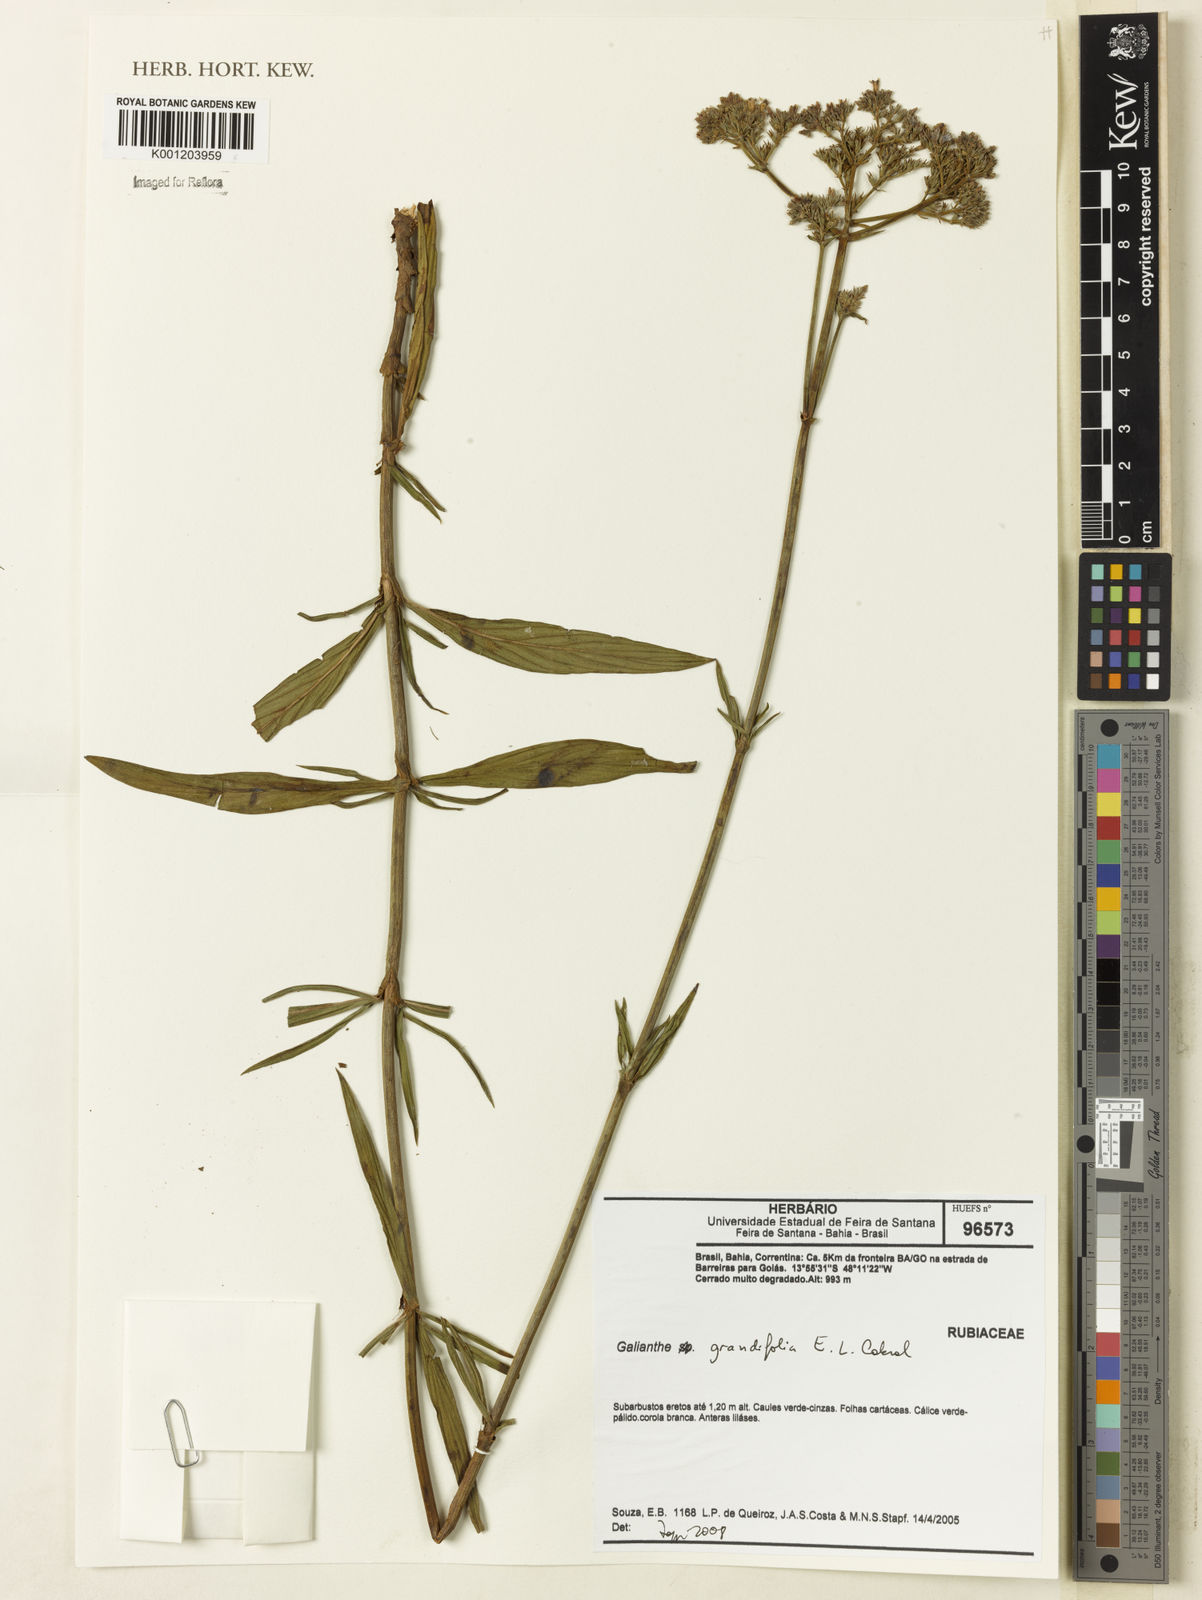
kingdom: Plantae
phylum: Tracheophyta
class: Magnoliopsida
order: Gentianales
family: Rubiaceae
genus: Galianthe
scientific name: Galianthe grandifolia
